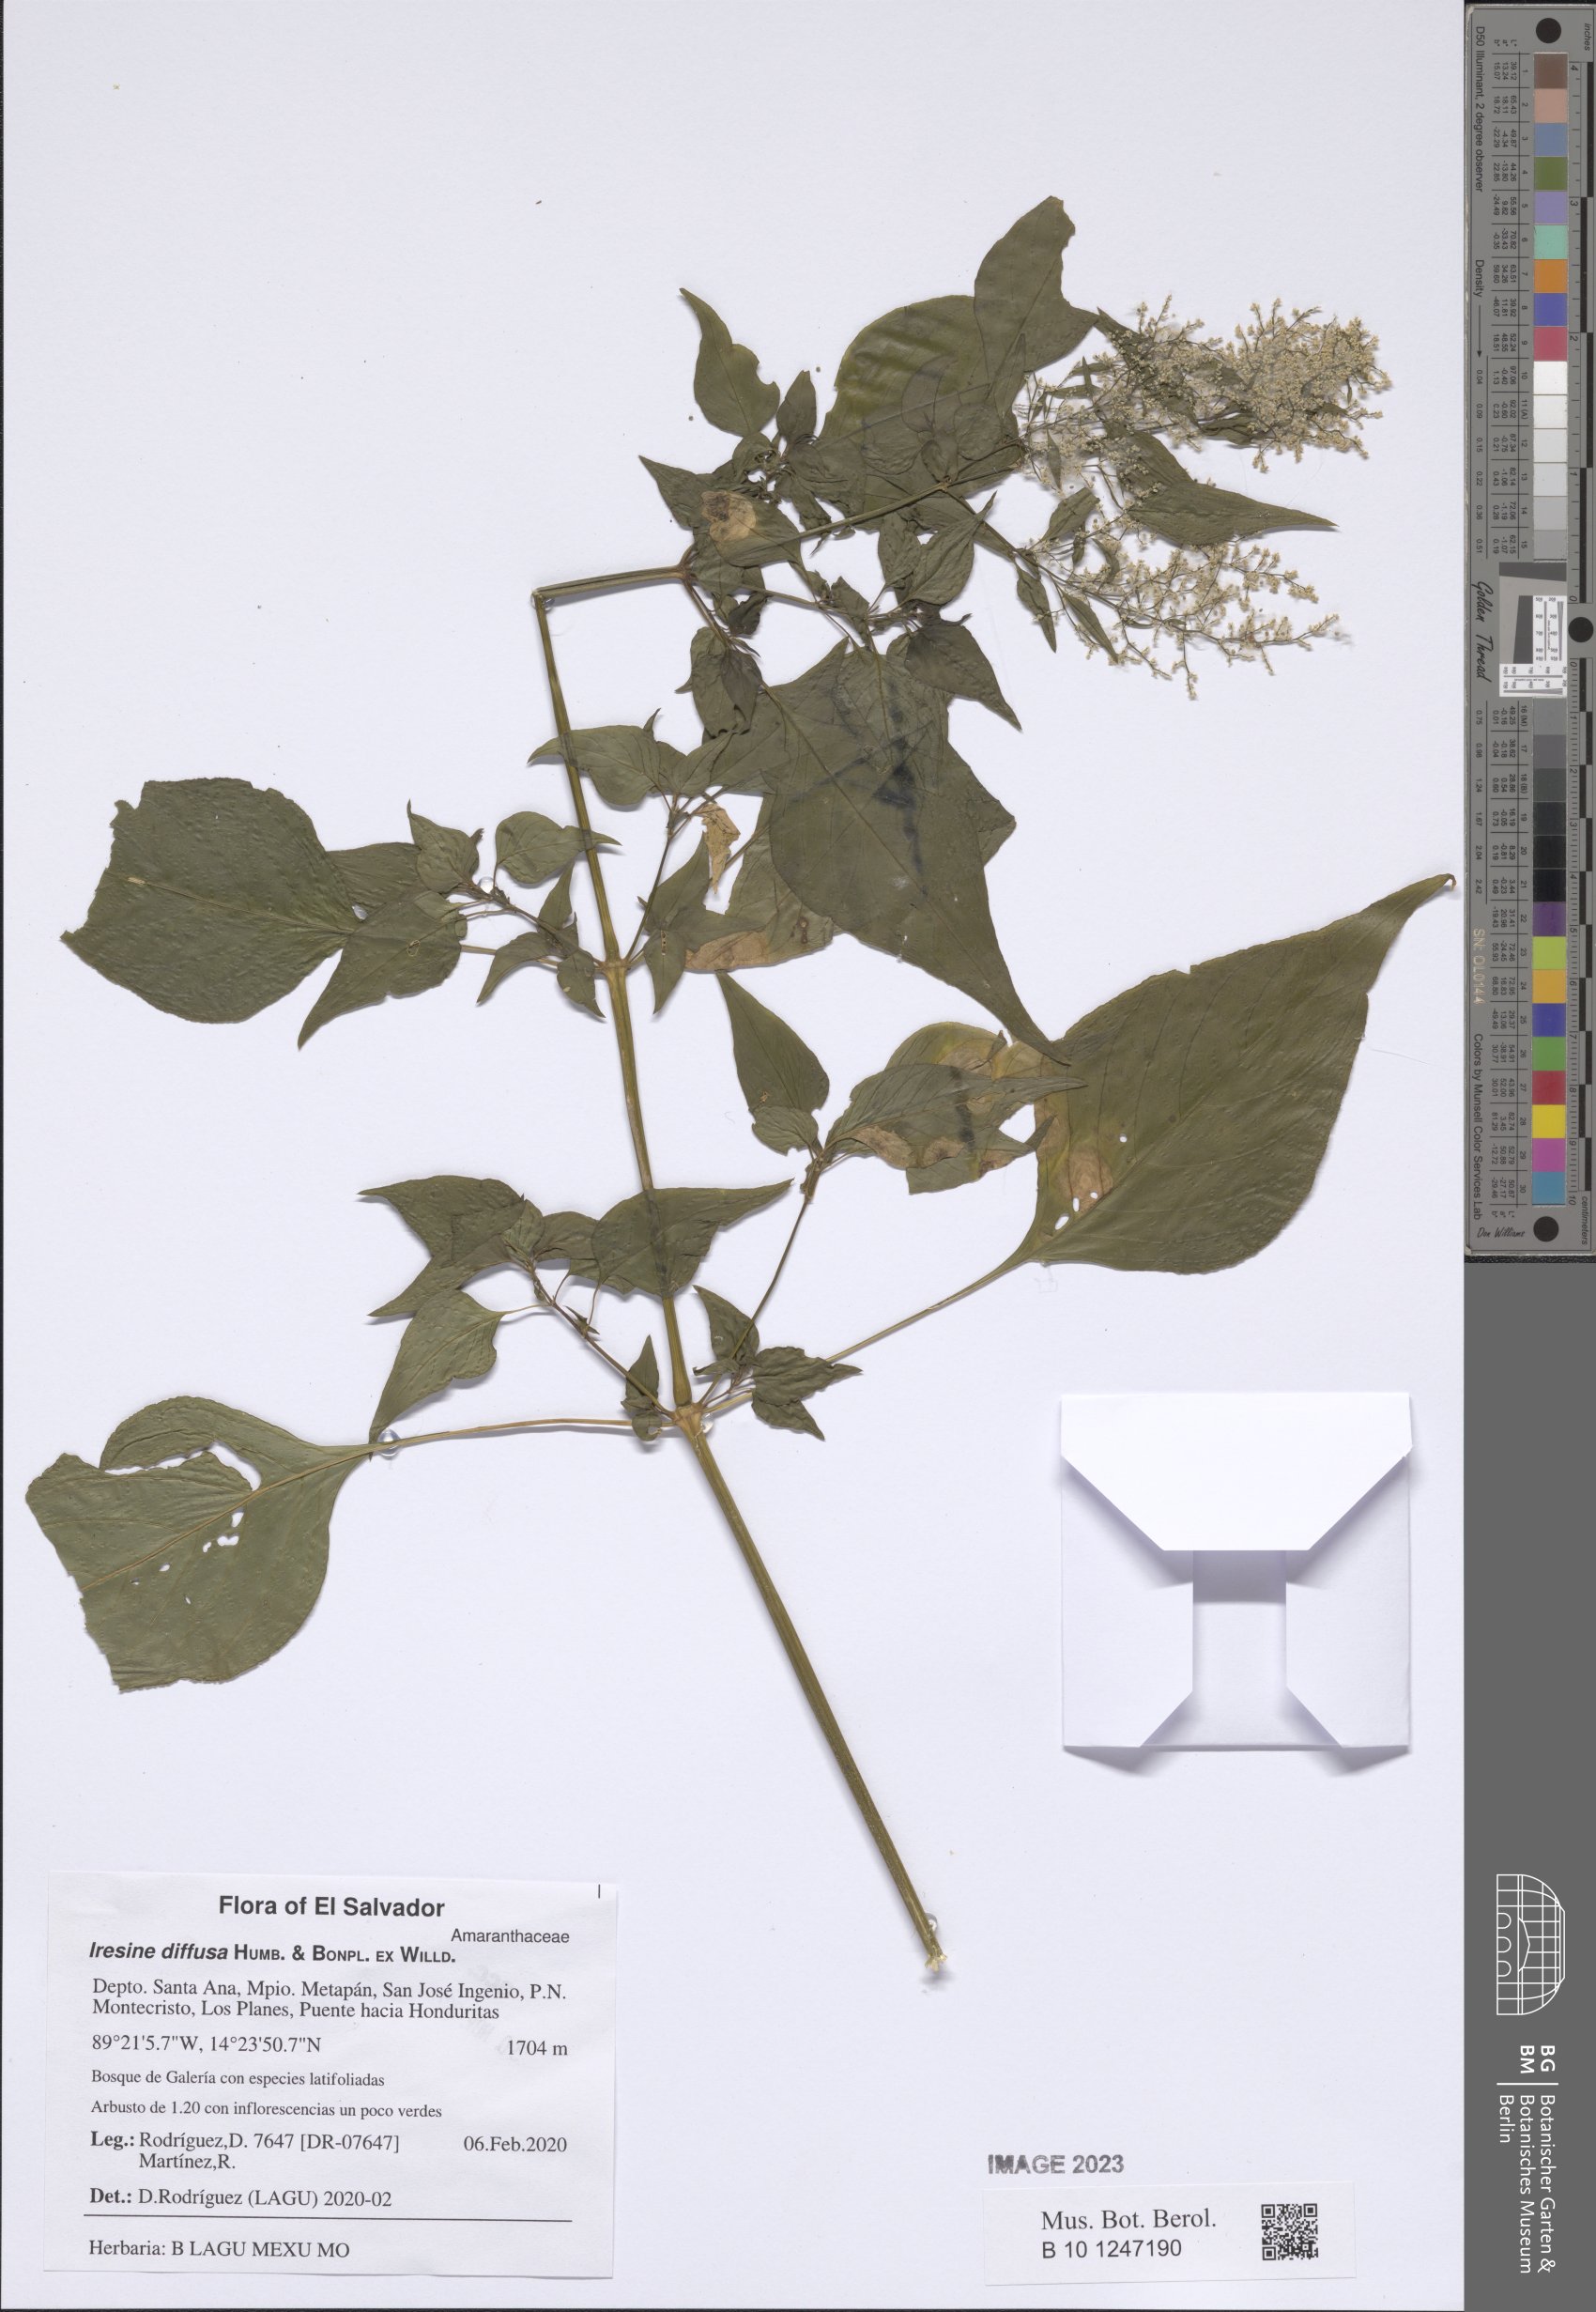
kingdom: Plantae
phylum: Tracheophyta
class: Magnoliopsida
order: Caryophyllales
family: Amaranthaceae
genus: Iresine
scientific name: Iresine diffusa
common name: Juba's-bush
